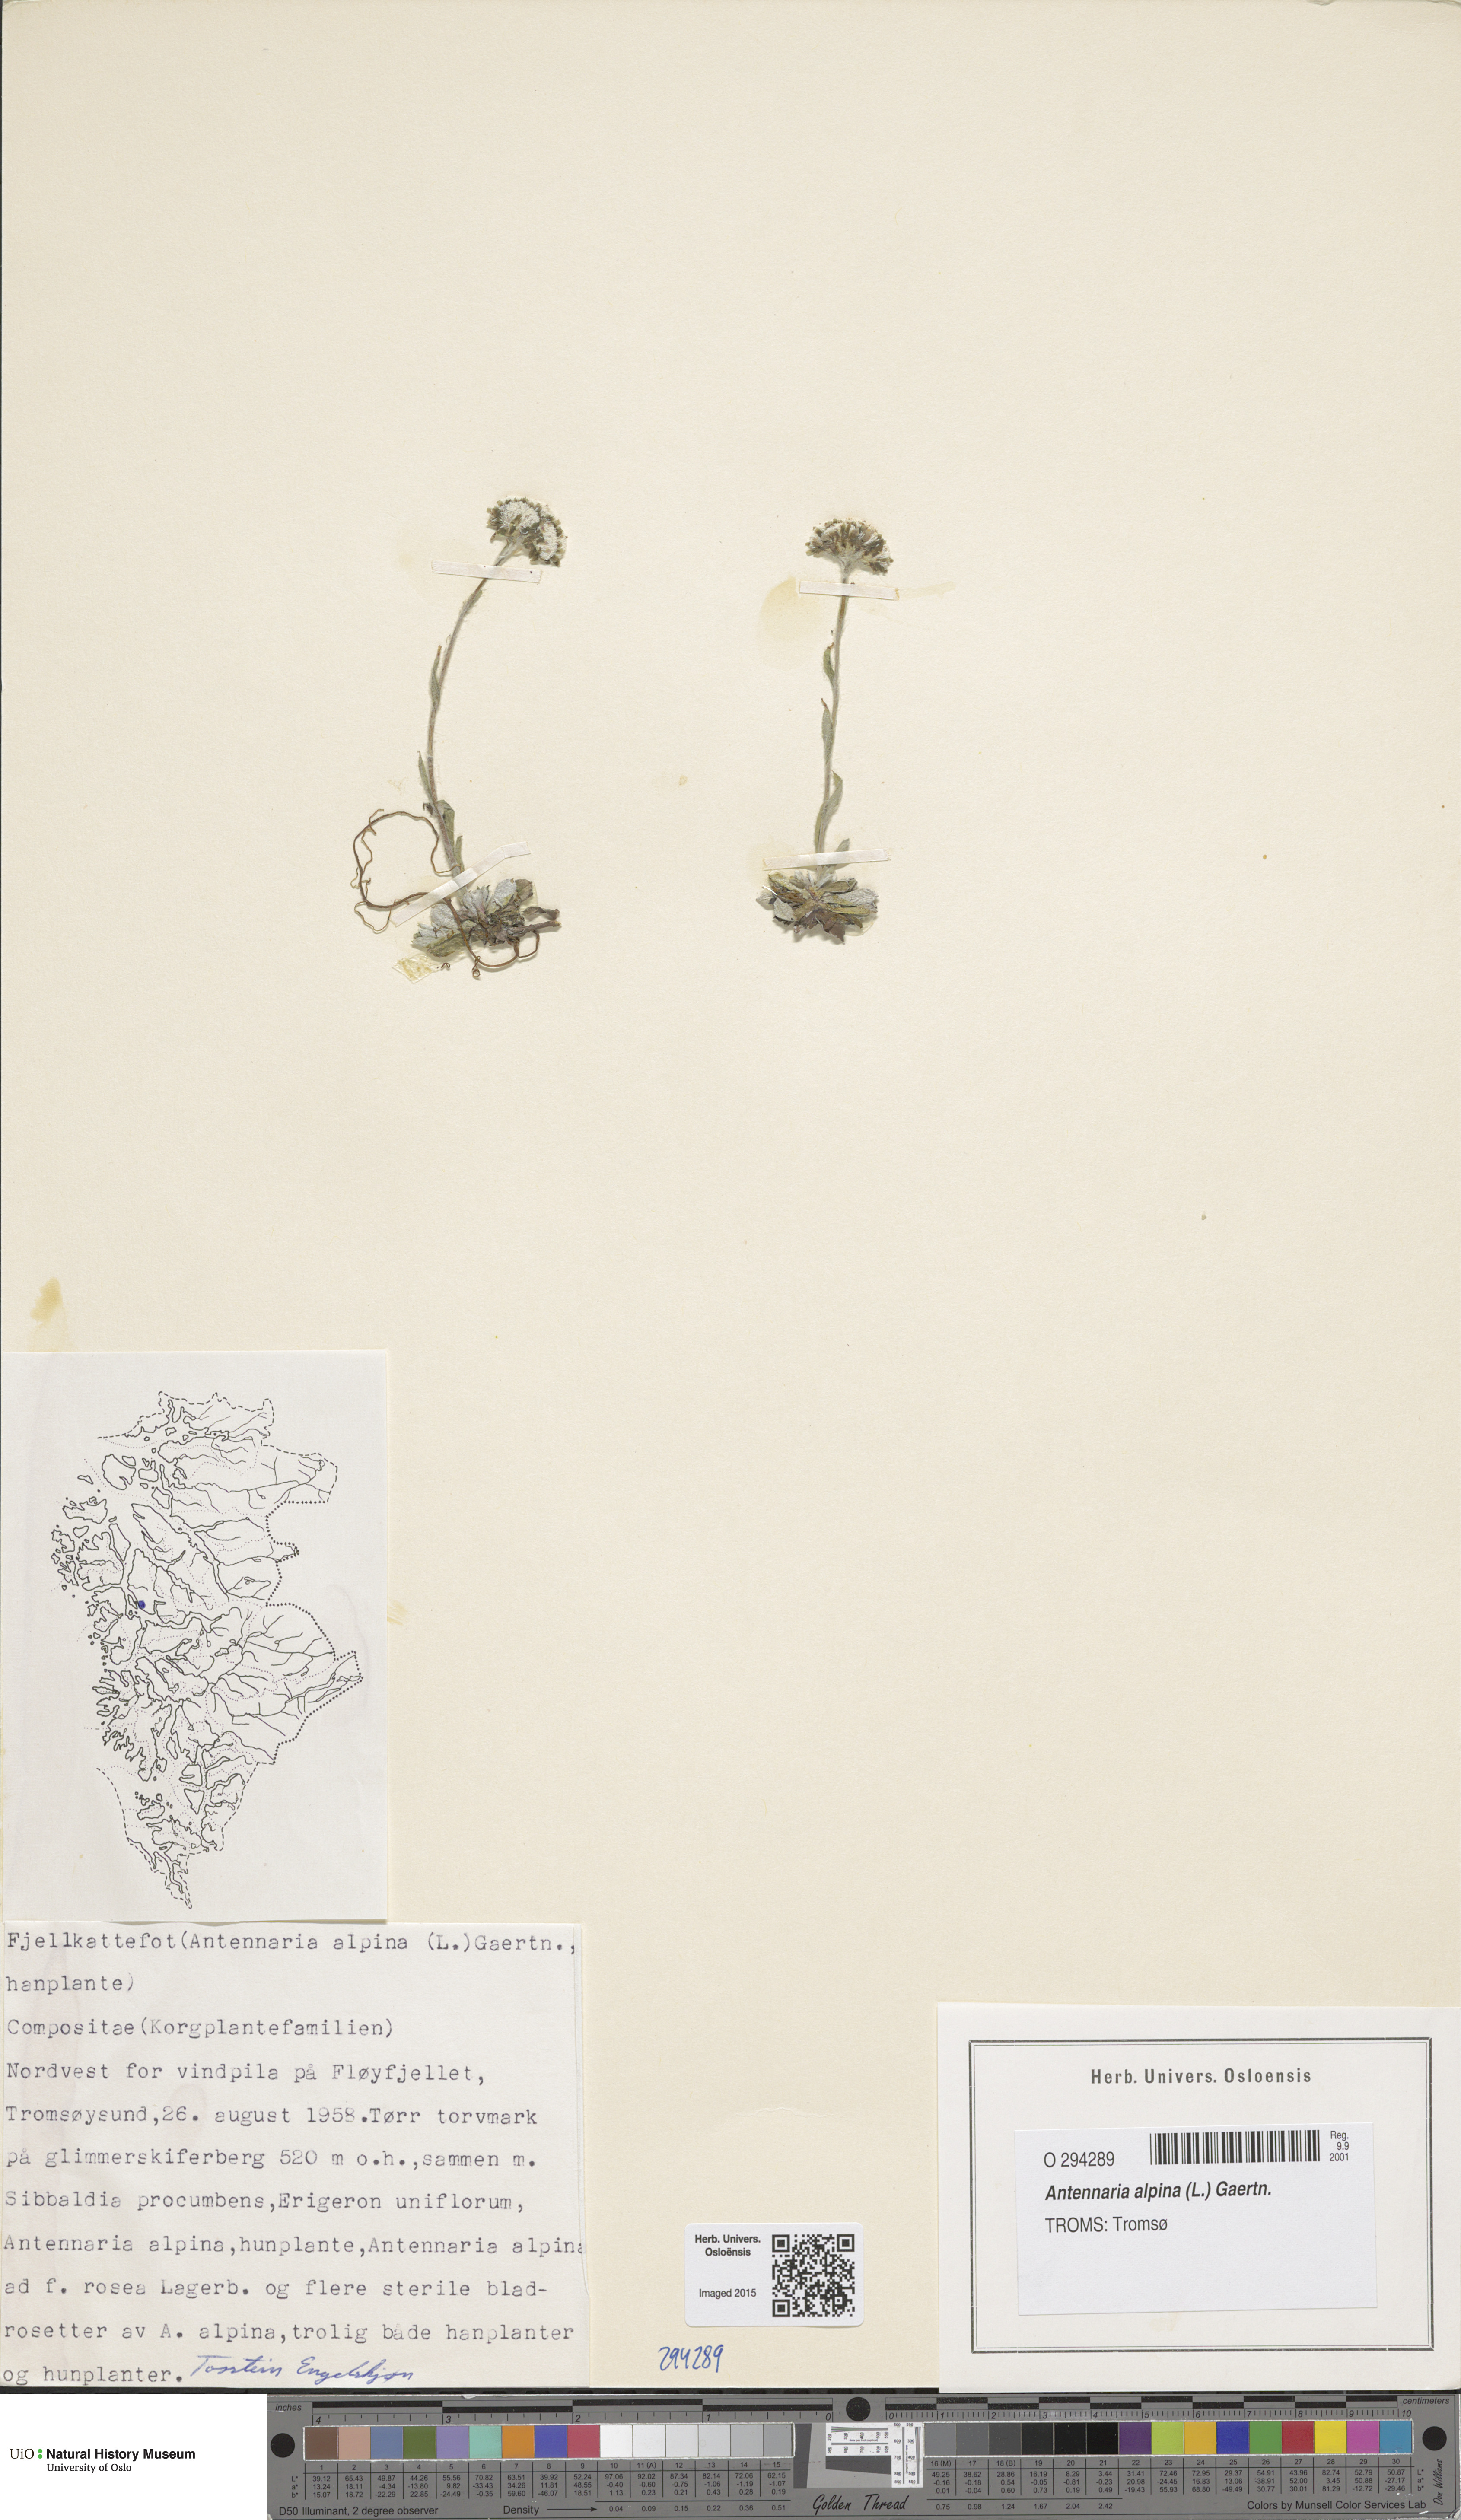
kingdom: Plantae
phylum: Tracheophyta
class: Magnoliopsida
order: Asterales
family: Asteraceae
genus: Antennaria
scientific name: Antennaria alpina
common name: Alpine pussytoes
